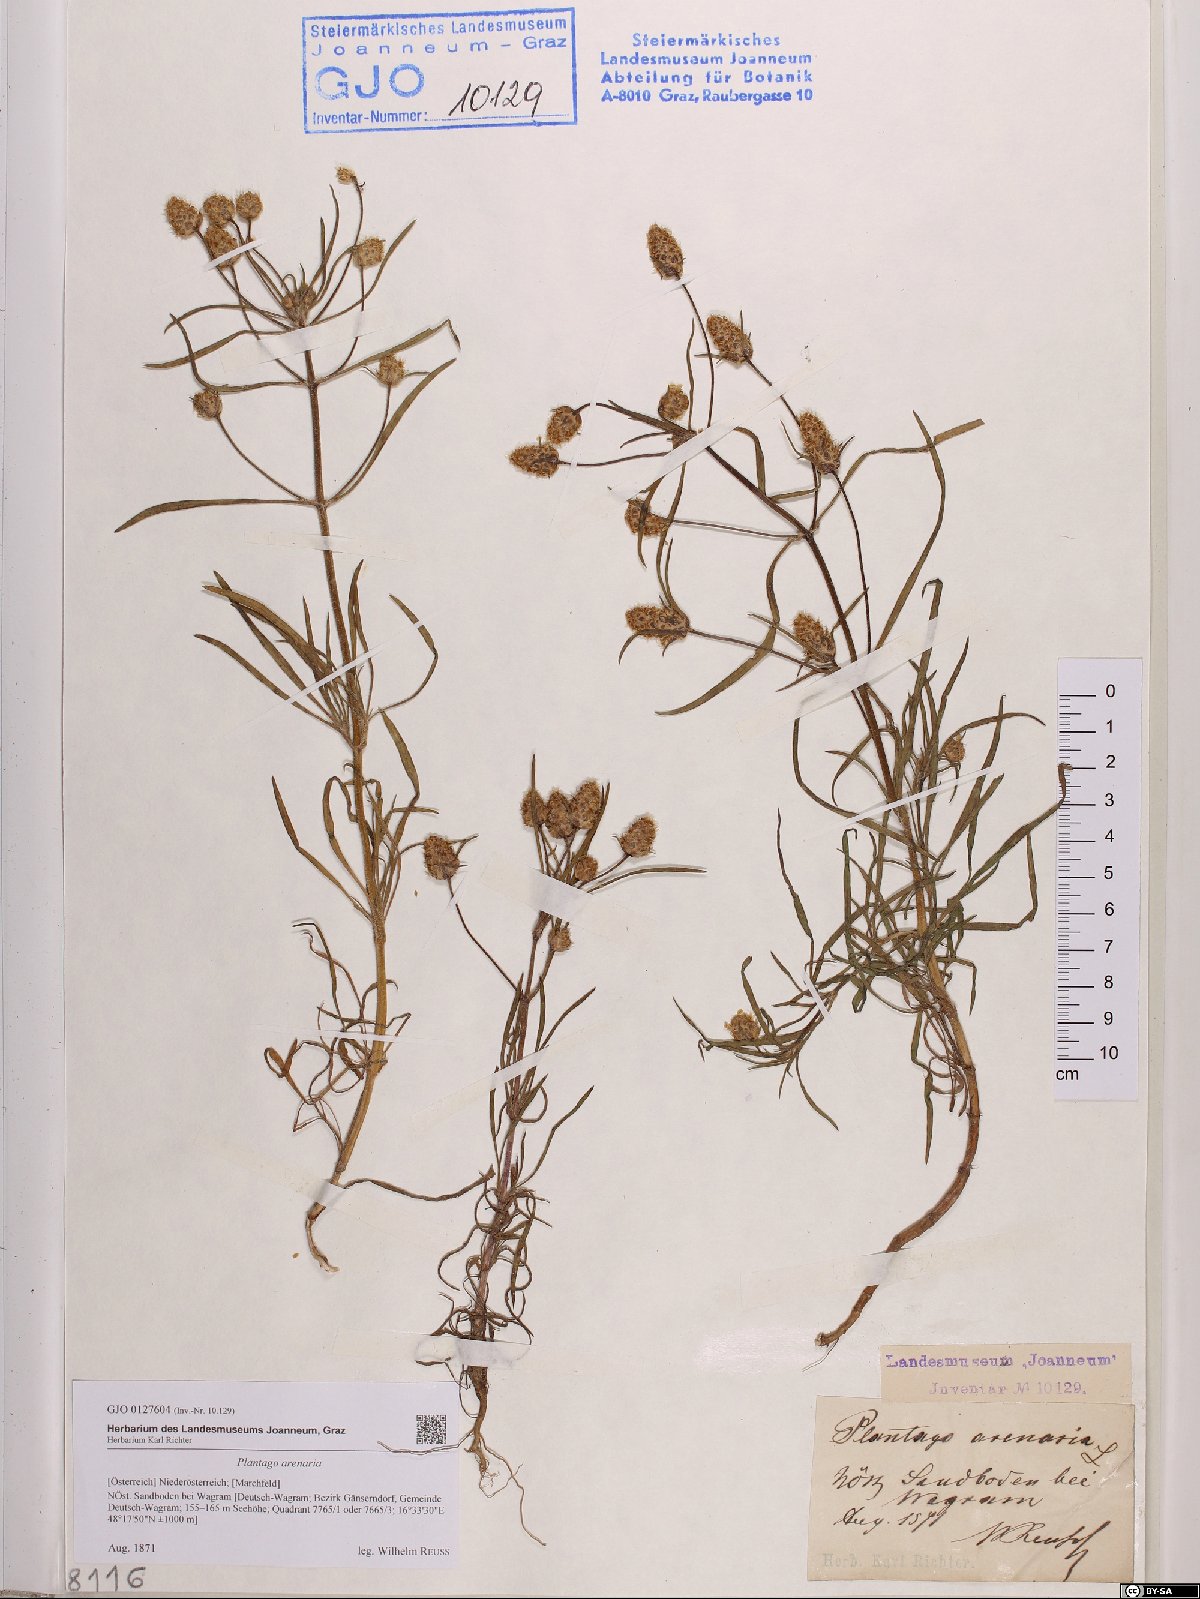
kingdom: Plantae
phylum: Tracheophyta
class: Magnoliopsida
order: Lamiales
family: Plantaginaceae
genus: Plantago
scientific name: Plantago arenaria
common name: Branched plantain
